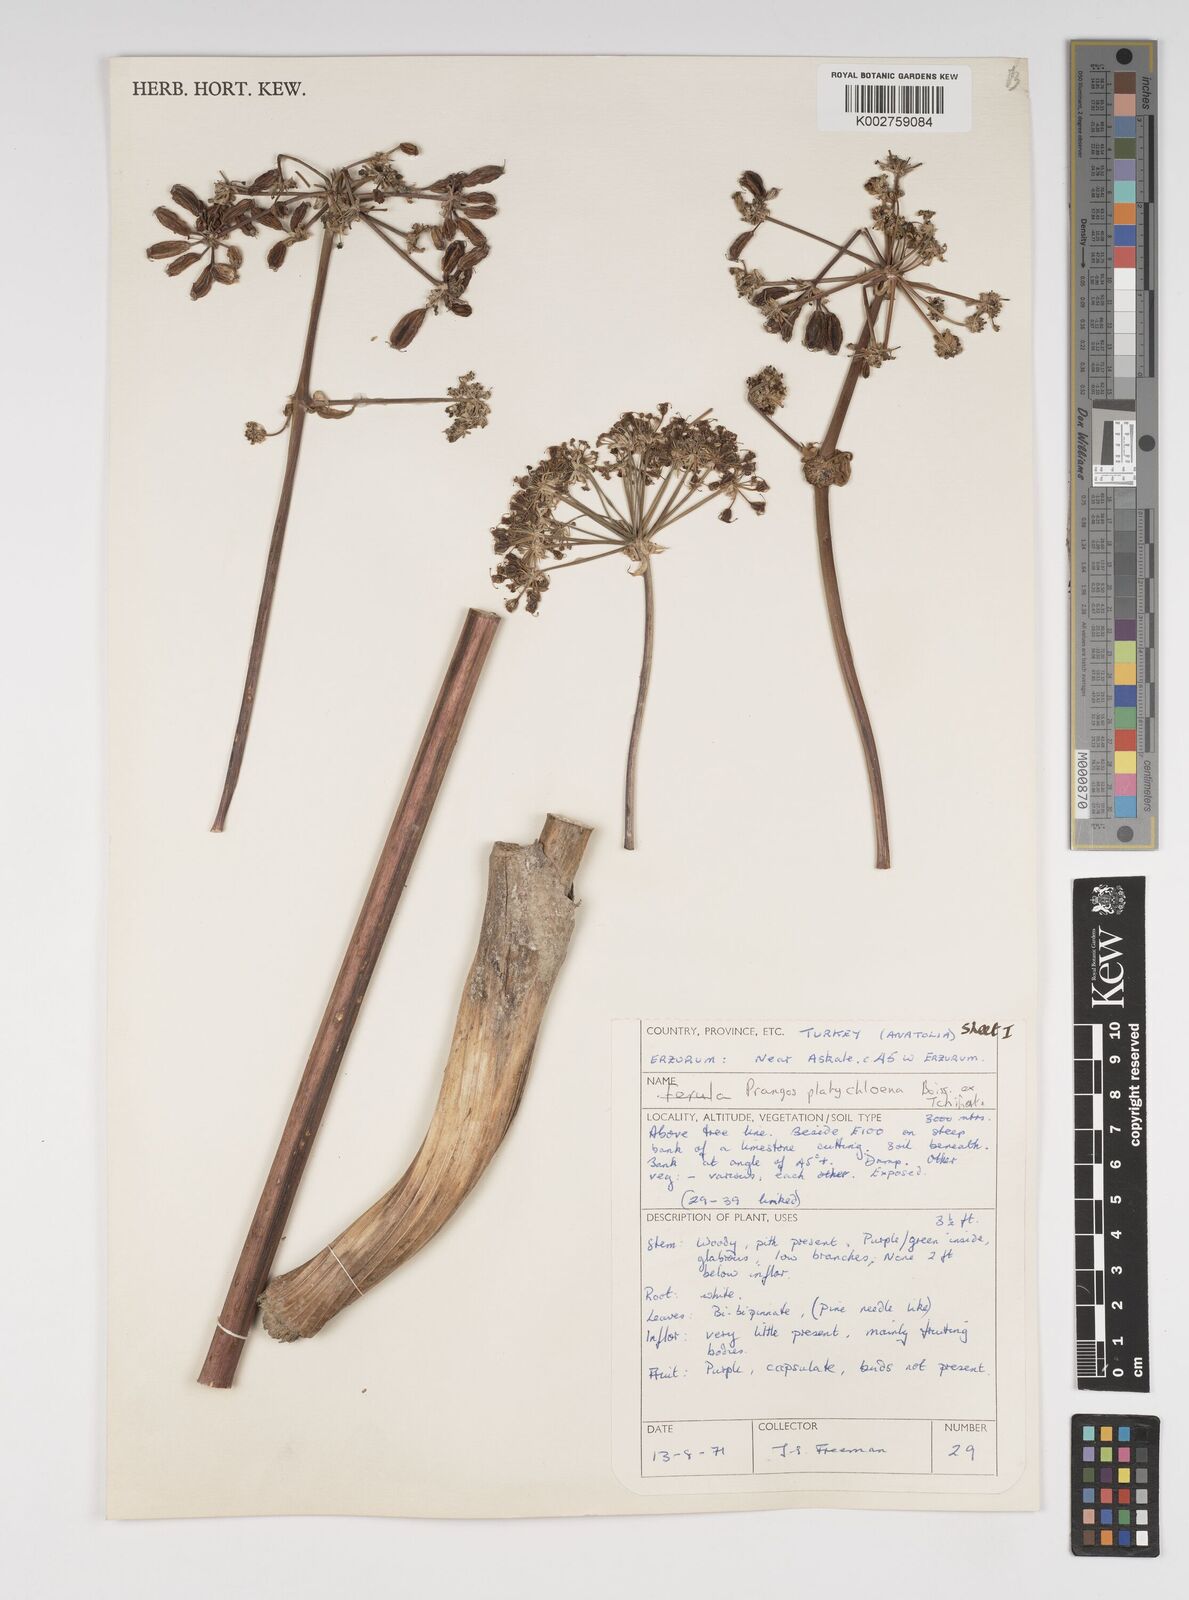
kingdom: Plantae
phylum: Tracheophyta
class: Magnoliopsida
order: Apiales
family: Apiaceae
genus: Prangos
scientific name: Prangos platychlaena
